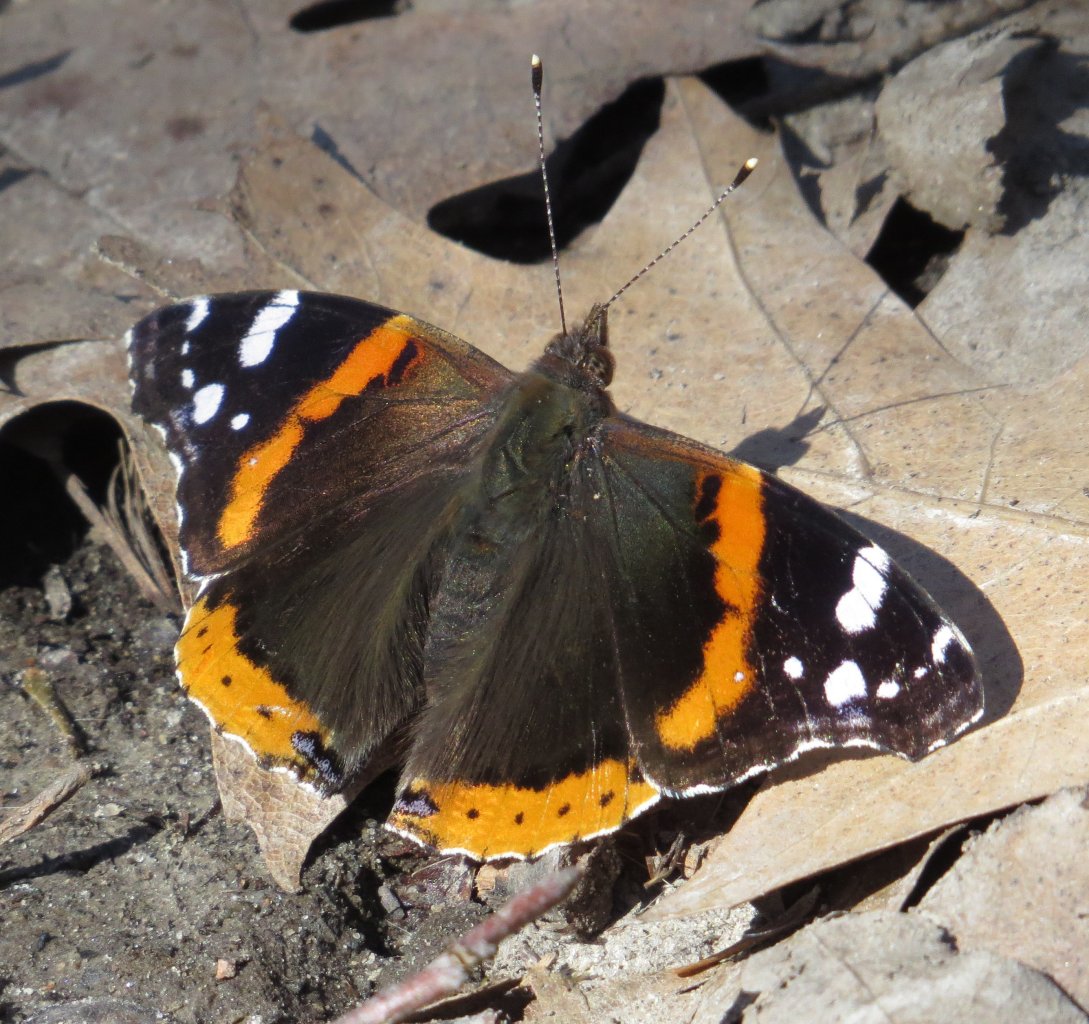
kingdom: Animalia
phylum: Arthropoda
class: Insecta
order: Lepidoptera
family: Nymphalidae
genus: Vanessa
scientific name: Vanessa atalanta
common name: Red Admiral
